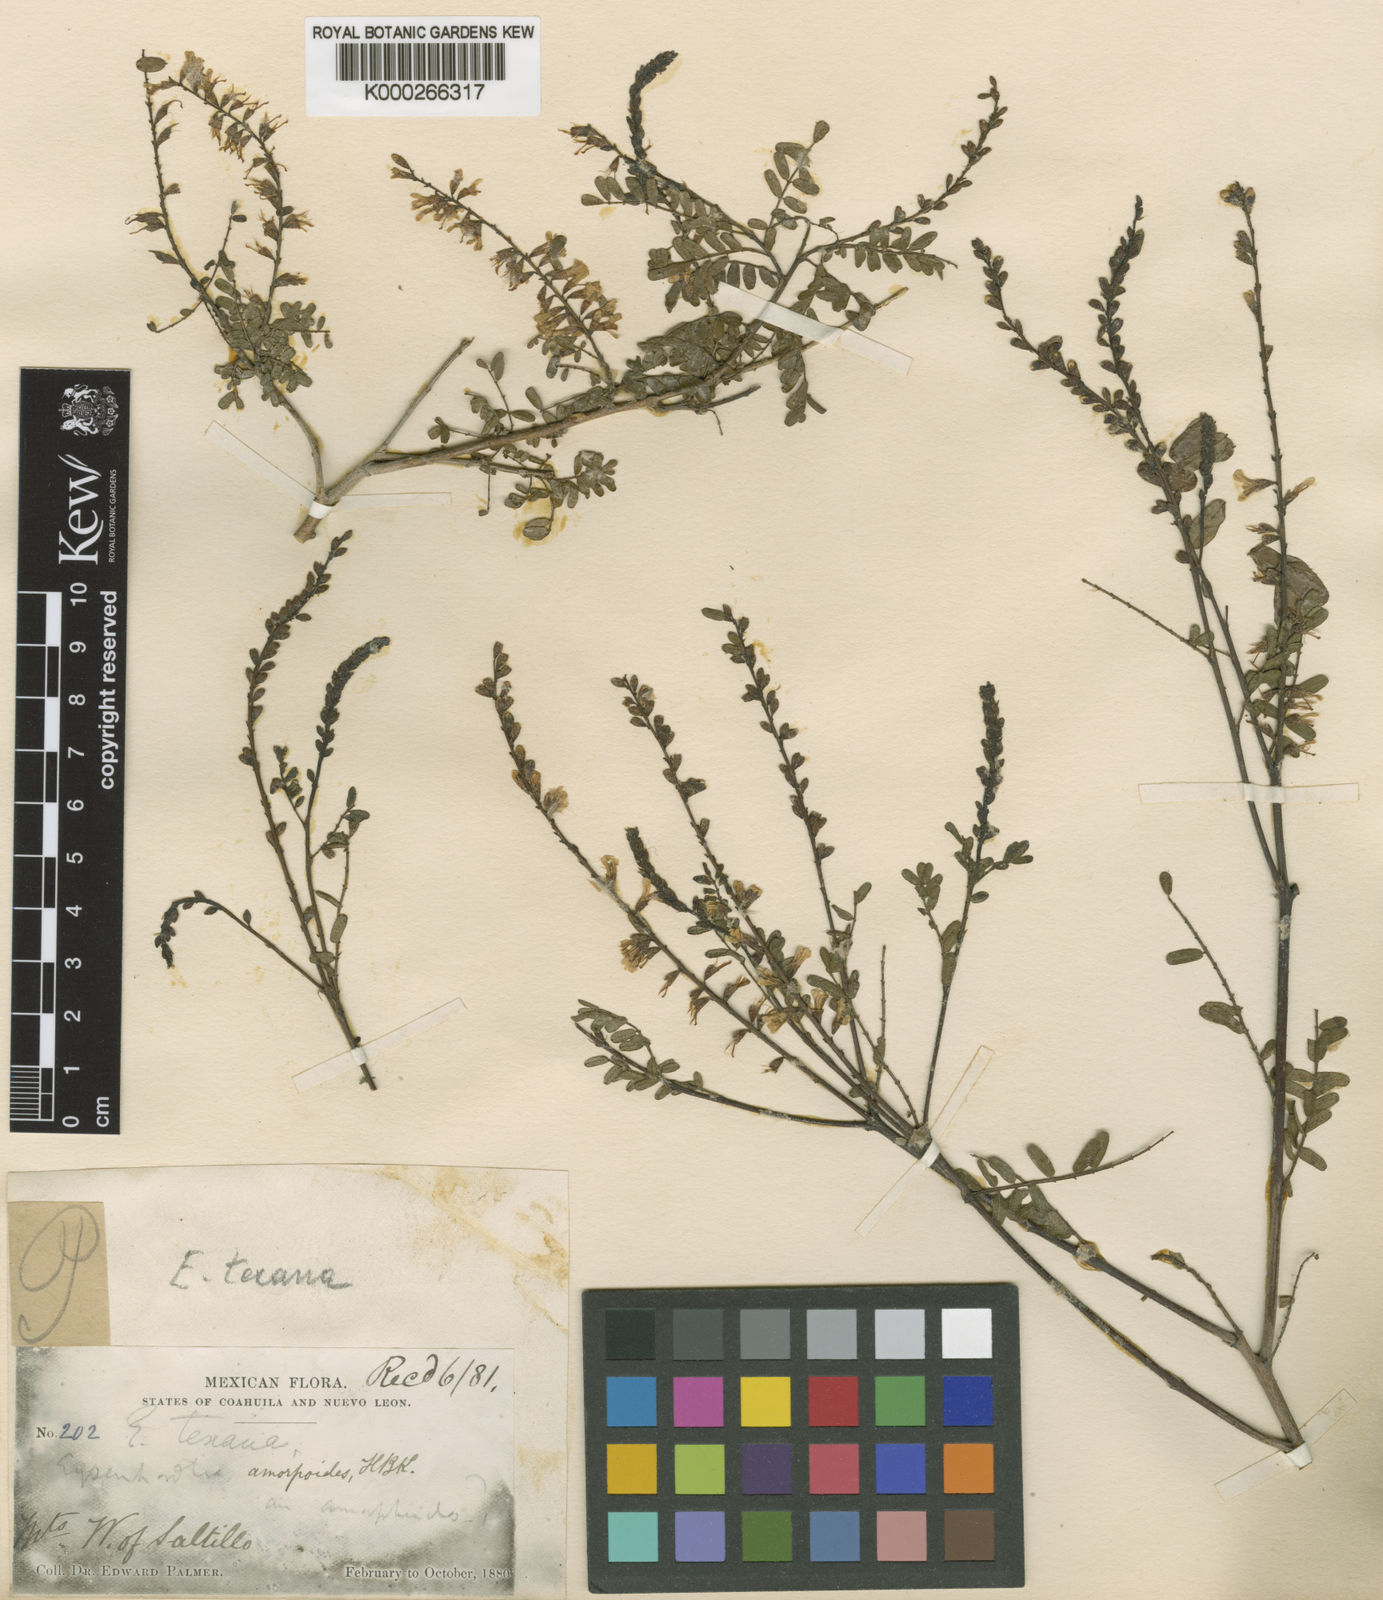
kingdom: Plantae
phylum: Tracheophyta
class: Magnoliopsida
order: Fabales
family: Fabaceae
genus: Eysenhardtia
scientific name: Eysenhardtia texana
